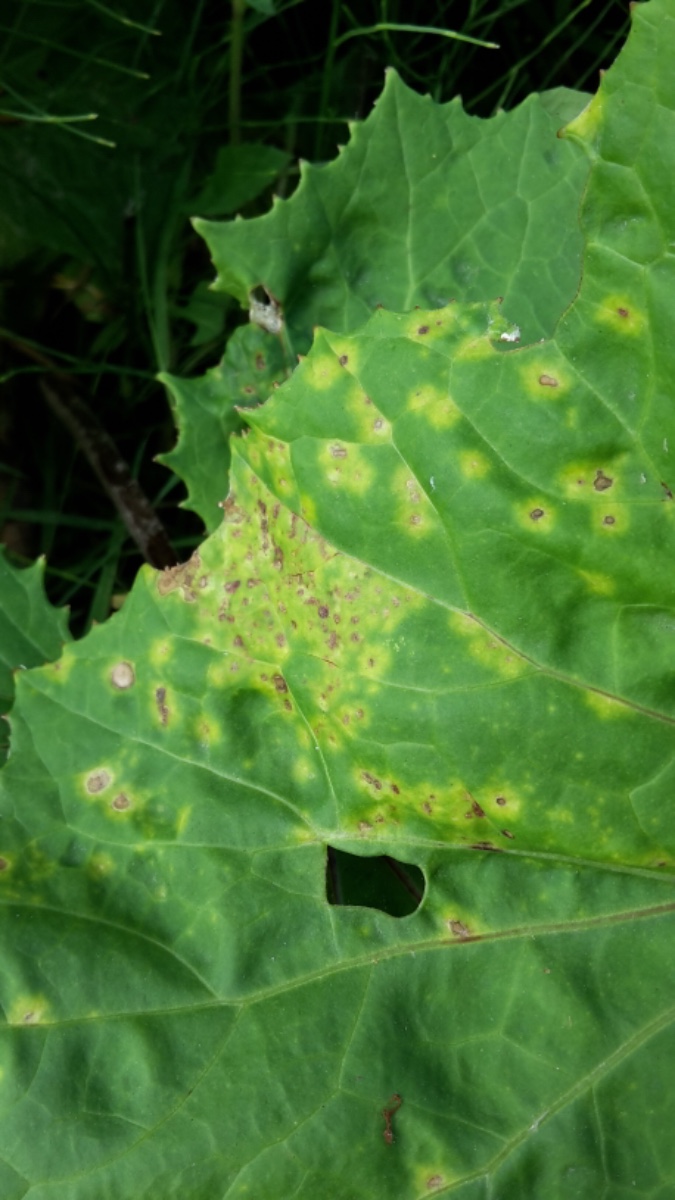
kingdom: Fungi
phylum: Basidiomycota
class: Pucciniomycetes
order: Pucciniales
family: Coleosporiaceae
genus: Coleosporium
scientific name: Coleosporium tussilaginis
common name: almindelig fyrrenålerust
